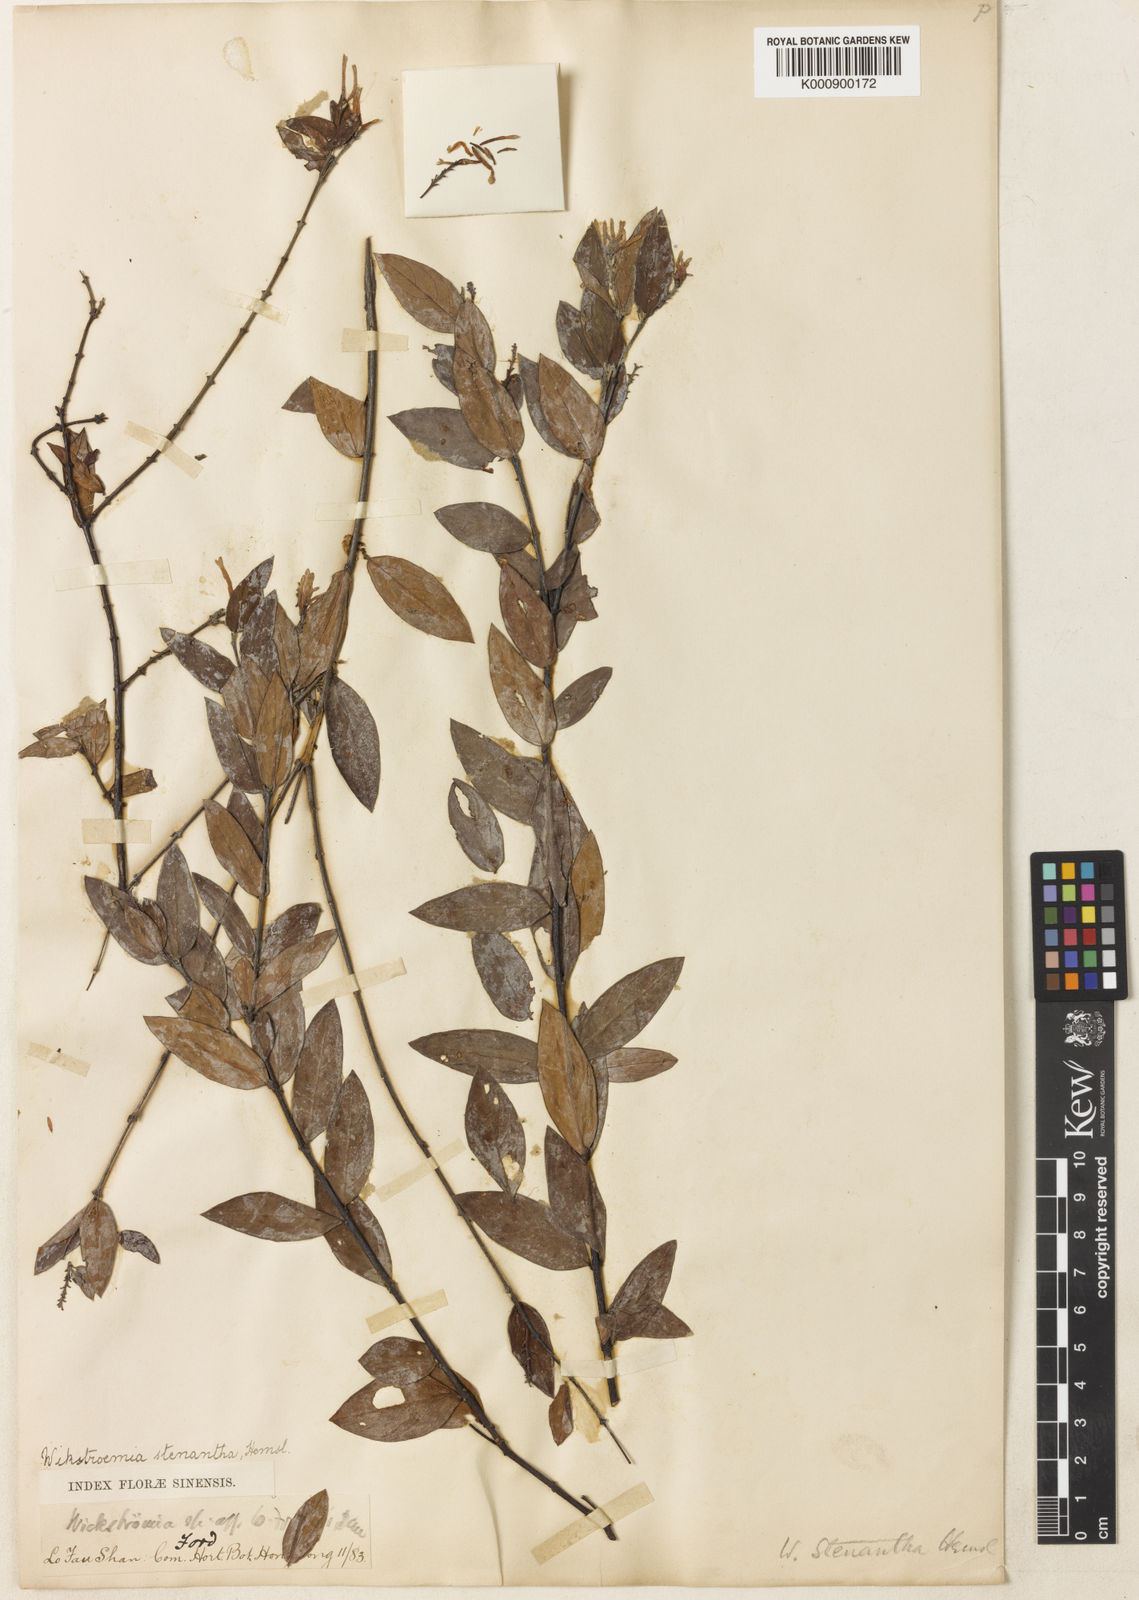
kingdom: Plantae
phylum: Tracheophyta
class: Magnoliopsida
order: Malvales
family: Thymelaeaceae
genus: Wikstroemia
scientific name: Wikstroemia monnula
